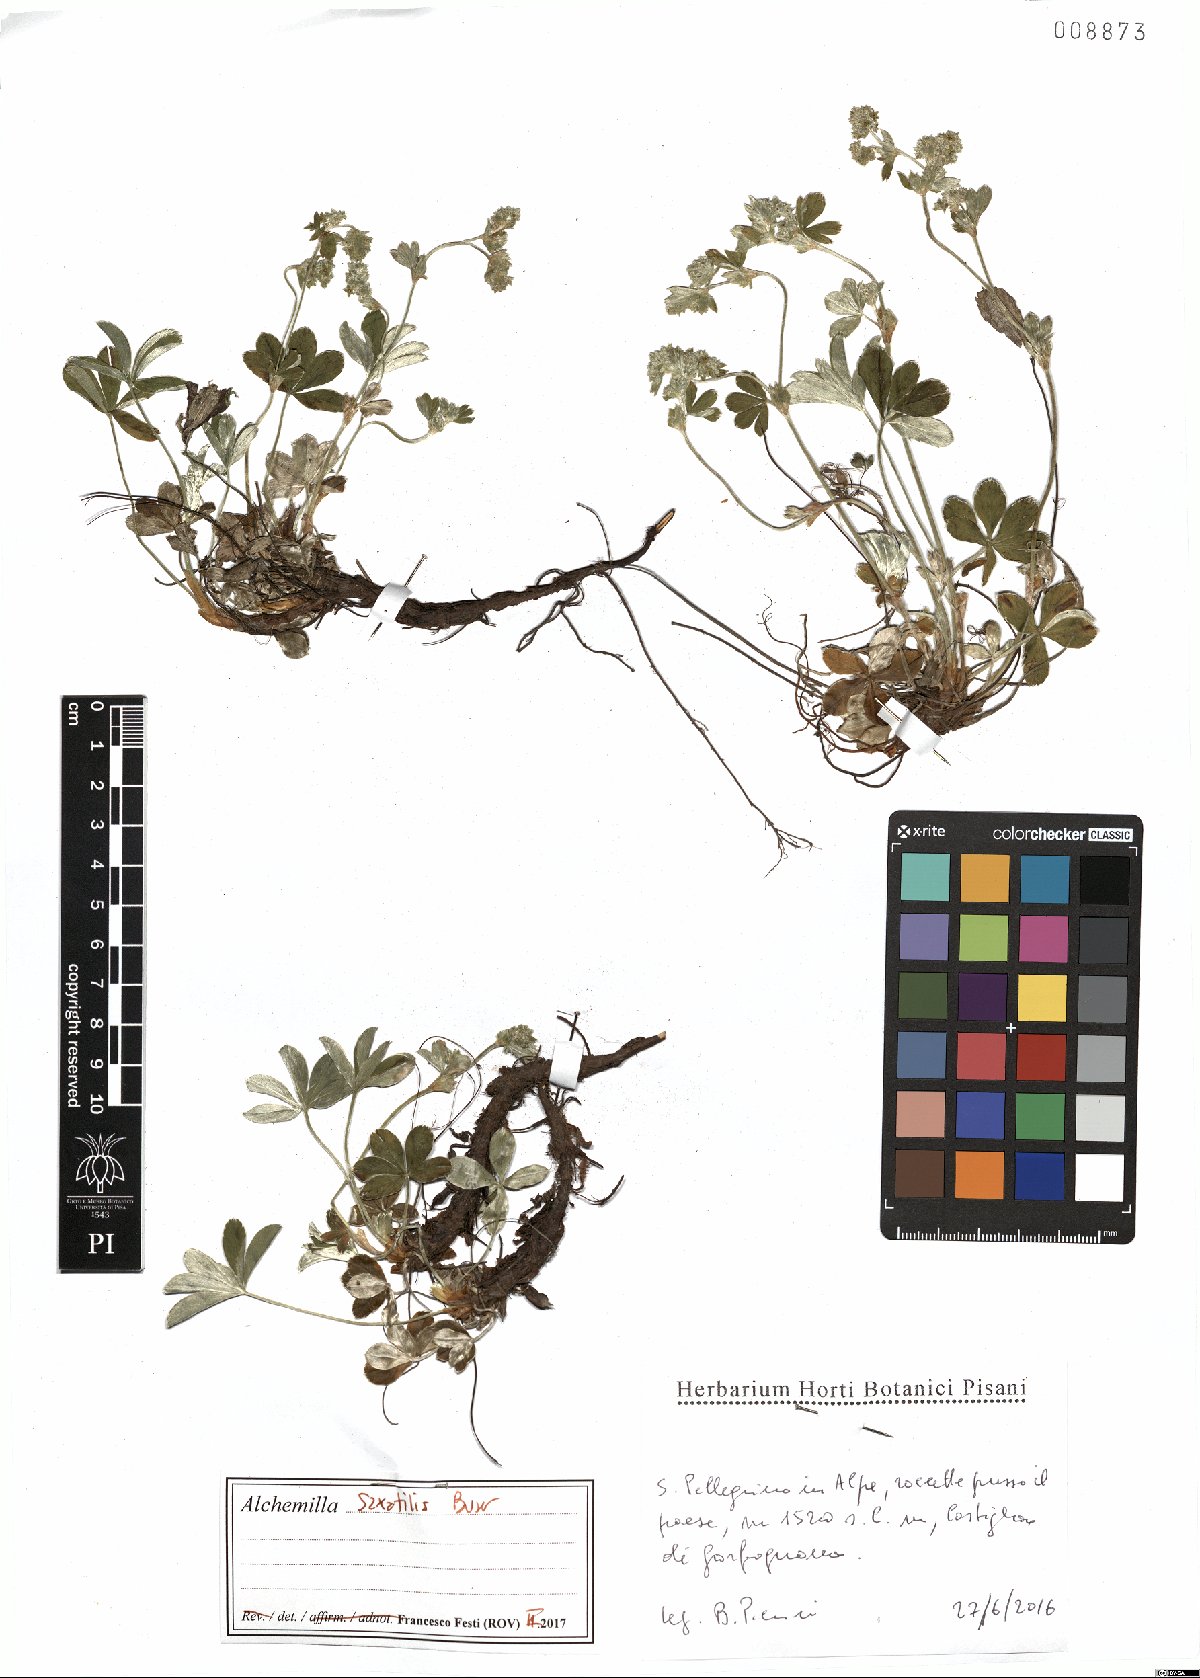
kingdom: Plantae
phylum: Tracheophyta
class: Magnoliopsida
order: Rosales
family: Rosaceae
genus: Alchemilla
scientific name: Alchemilla saxatilis
